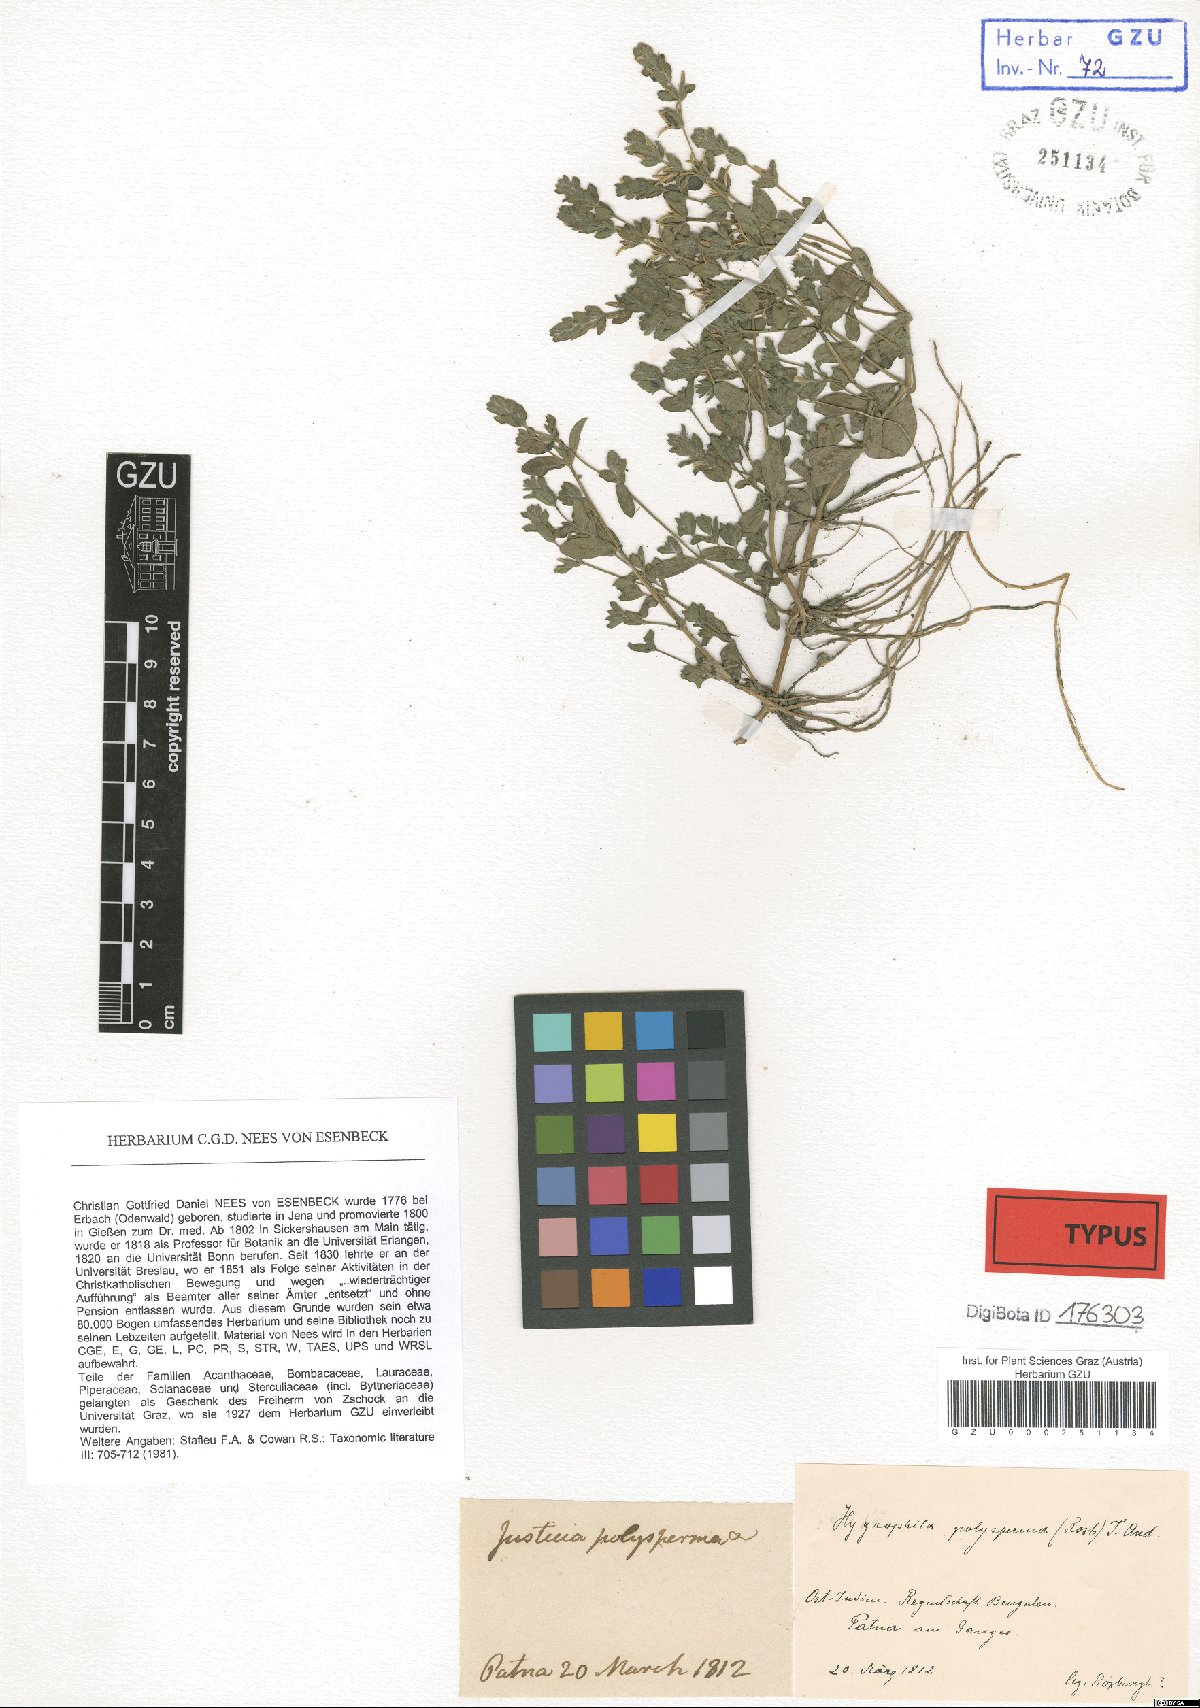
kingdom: Plantae
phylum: Tracheophyta
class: Magnoliopsida
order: Lamiales
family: Acanthaceae
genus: Hygrophila
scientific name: Hygrophila polysperma
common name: Indian swampweed
